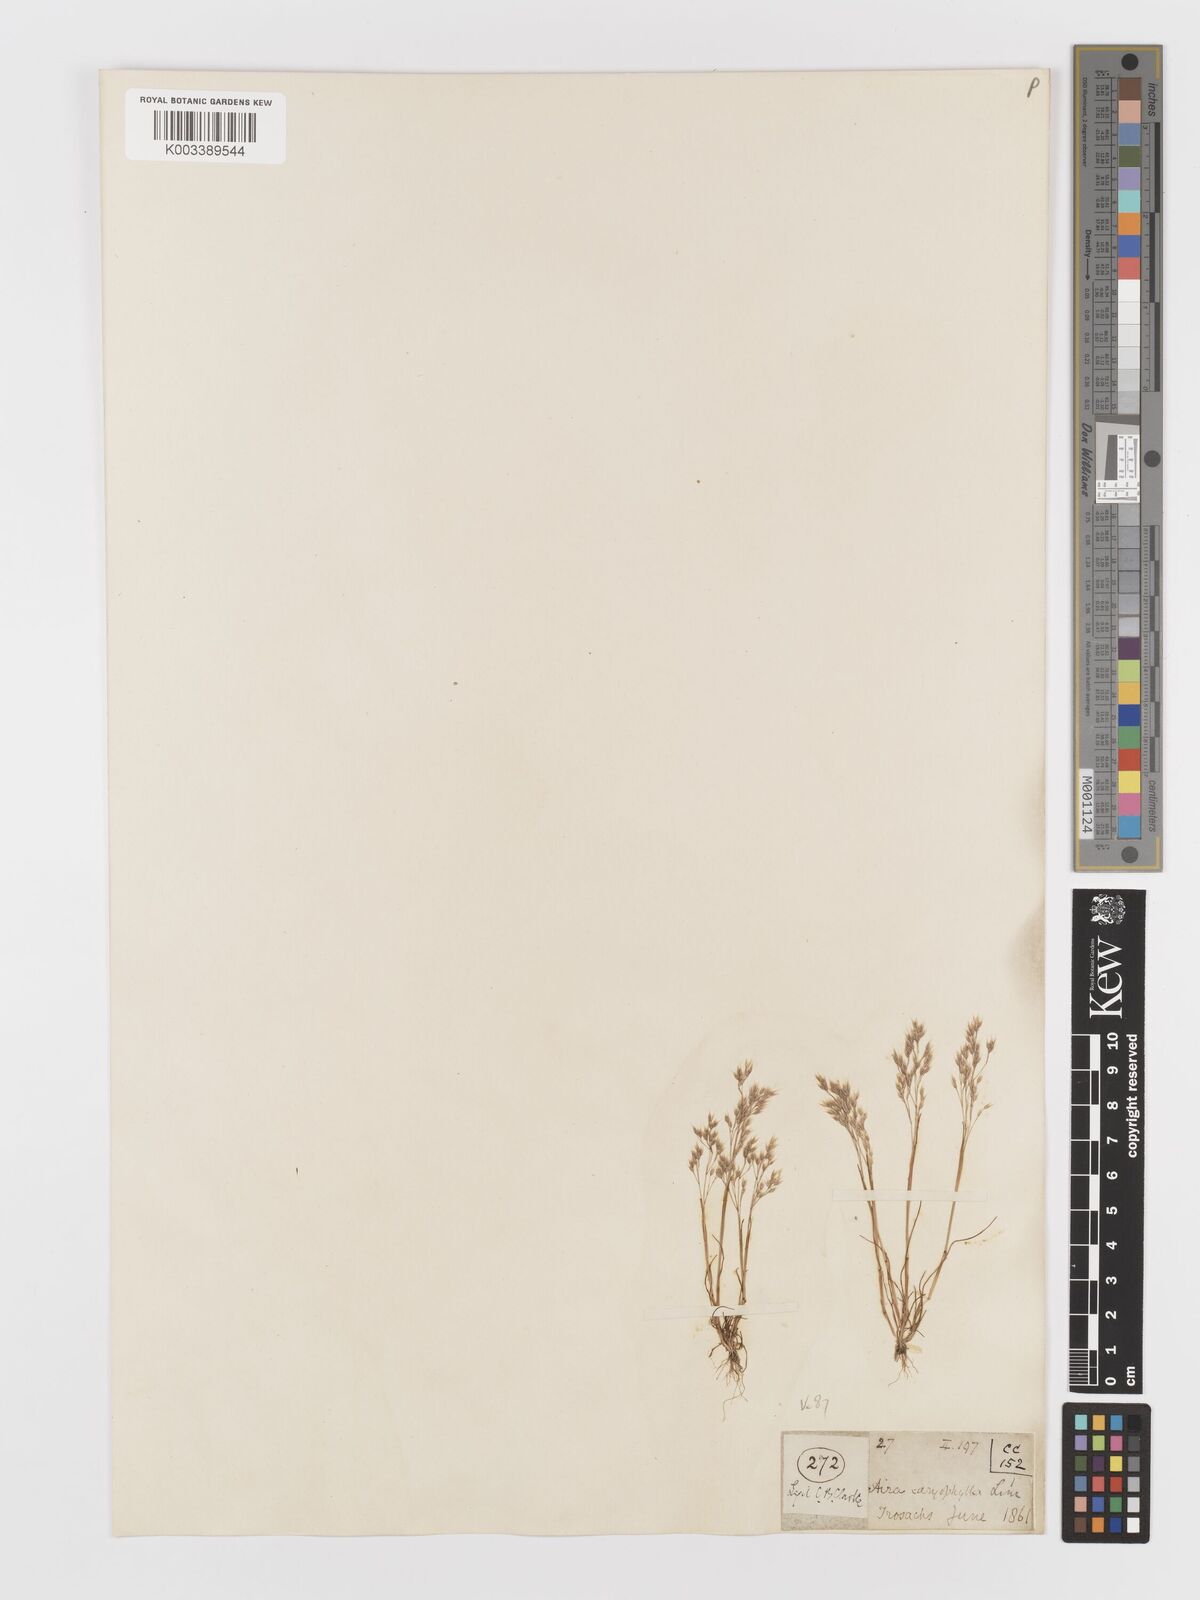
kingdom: Plantae
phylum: Tracheophyta
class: Liliopsida
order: Poales
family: Poaceae
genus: Aira
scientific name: Aira caryophyllea
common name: Silver hairgrass
